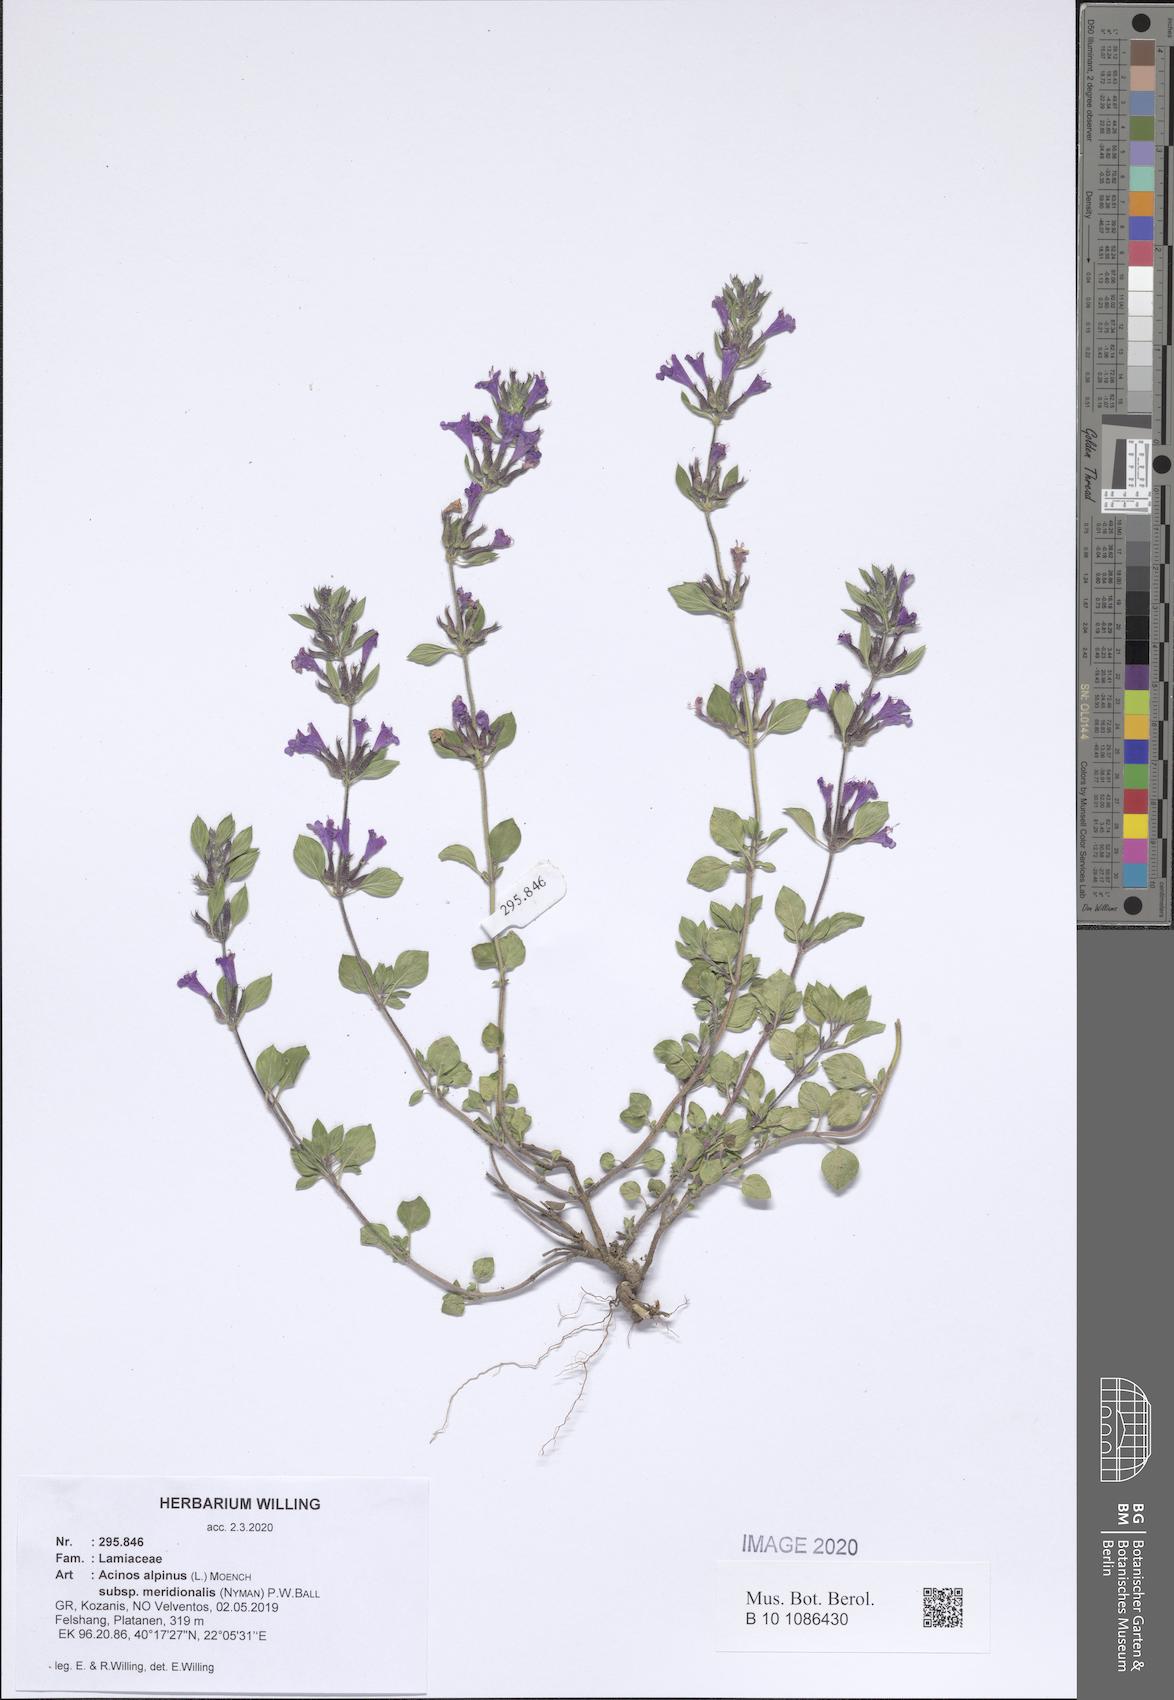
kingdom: Plantae
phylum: Tracheophyta
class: Magnoliopsida
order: Lamiales
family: Lamiaceae
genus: Clinopodium
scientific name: Clinopodium alpinum
